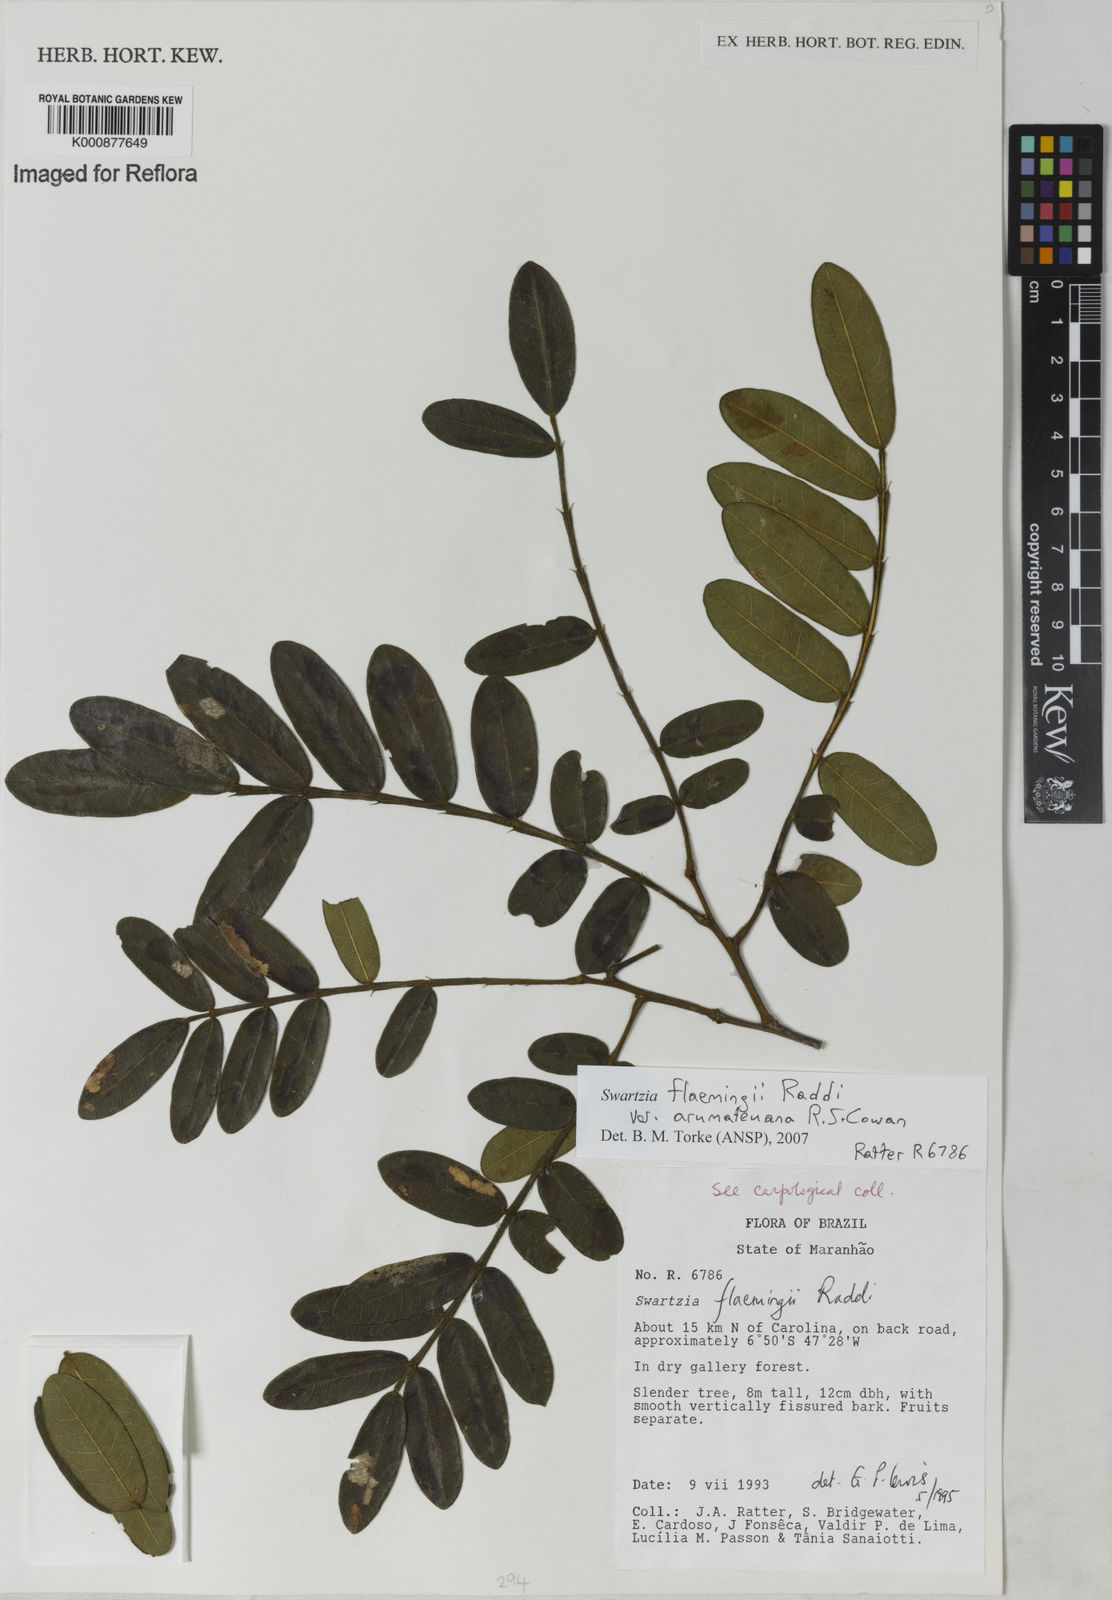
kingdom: Plantae
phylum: Tracheophyta
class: Magnoliopsida
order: Fabales
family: Fabaceae
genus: Swartzia
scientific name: Swartzia arumateuana
